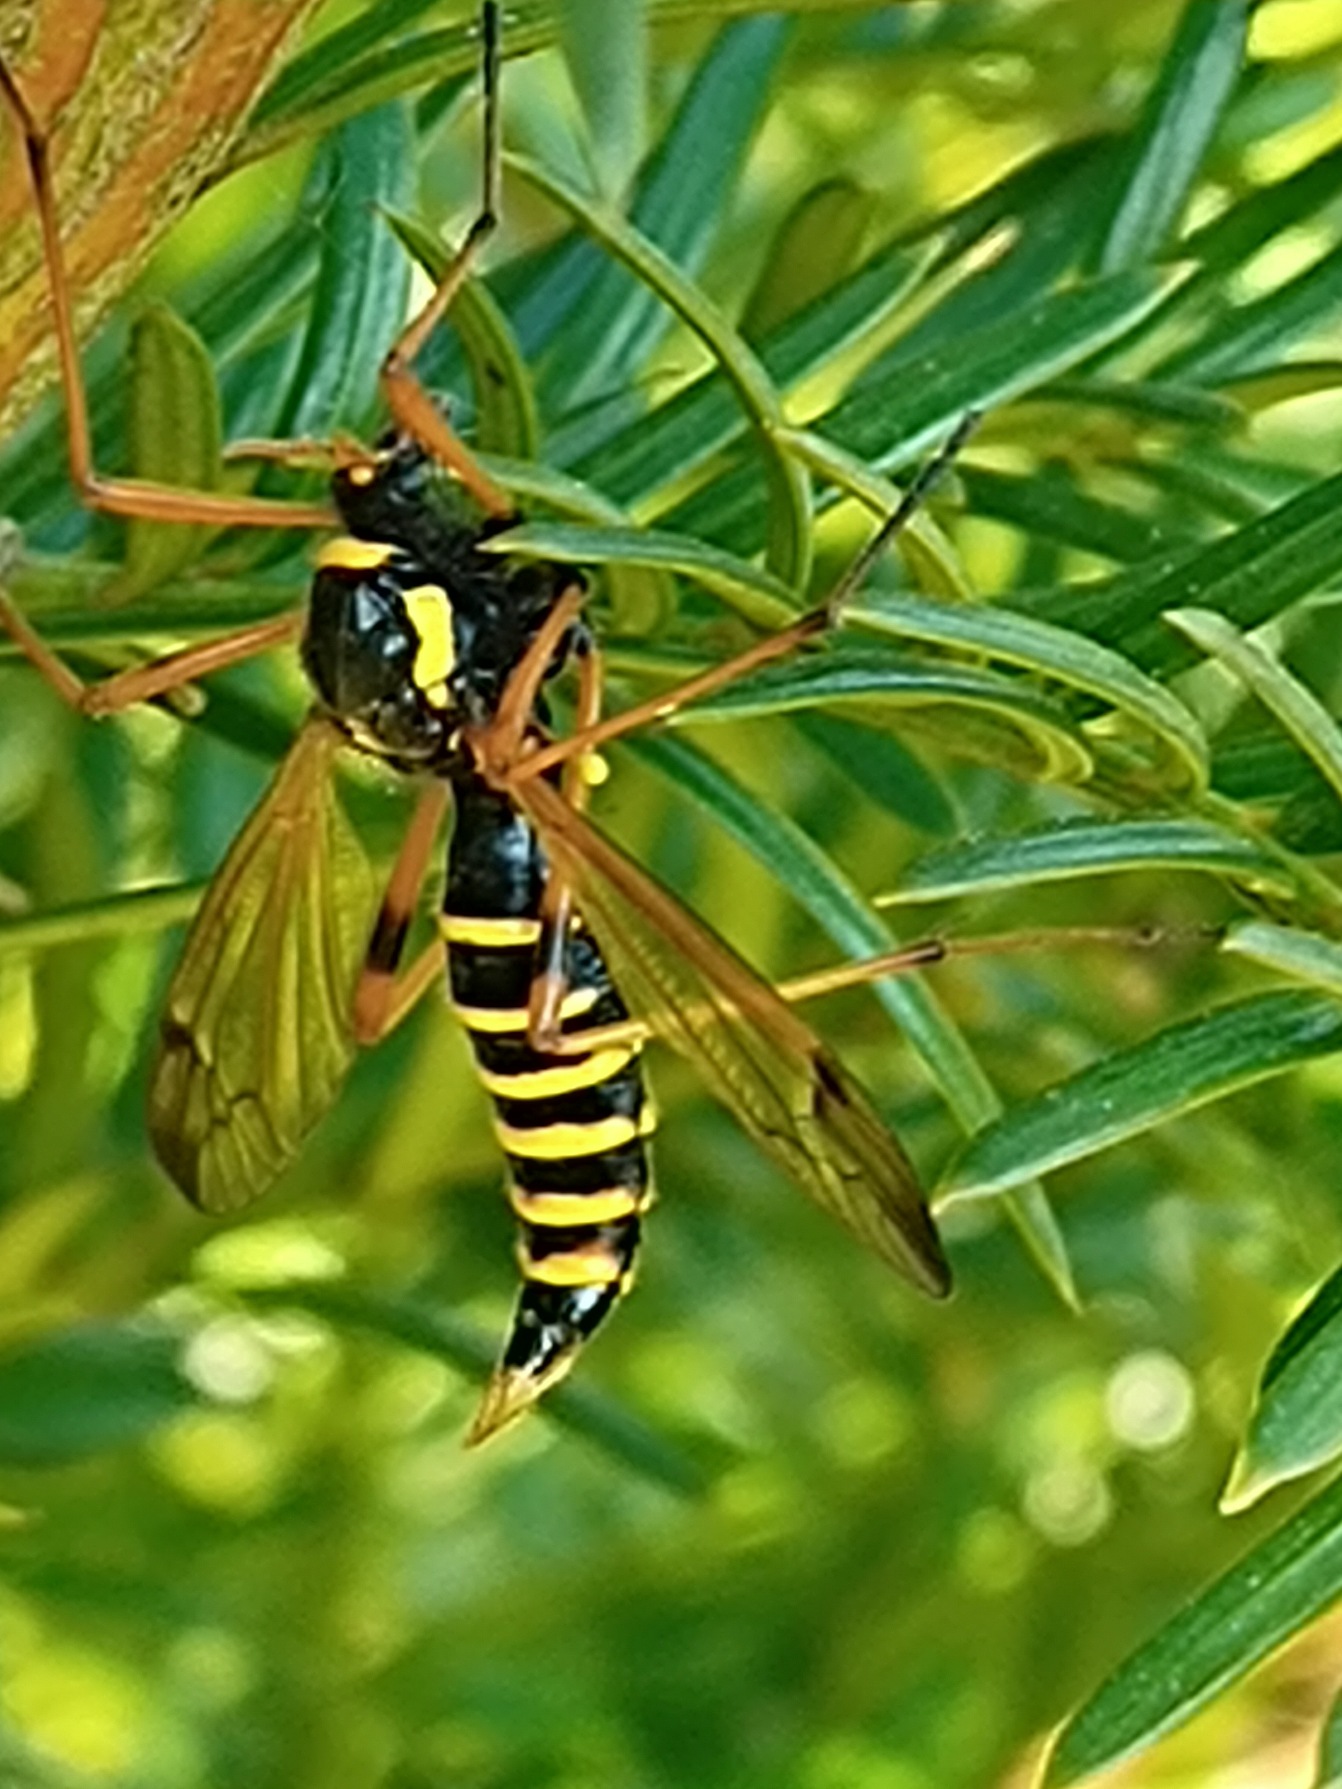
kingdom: Animalia
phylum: Arthropoda
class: Insecta
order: Diptera
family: Tipulidae
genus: Ctenophora
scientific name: Ctenophora flaveolata
